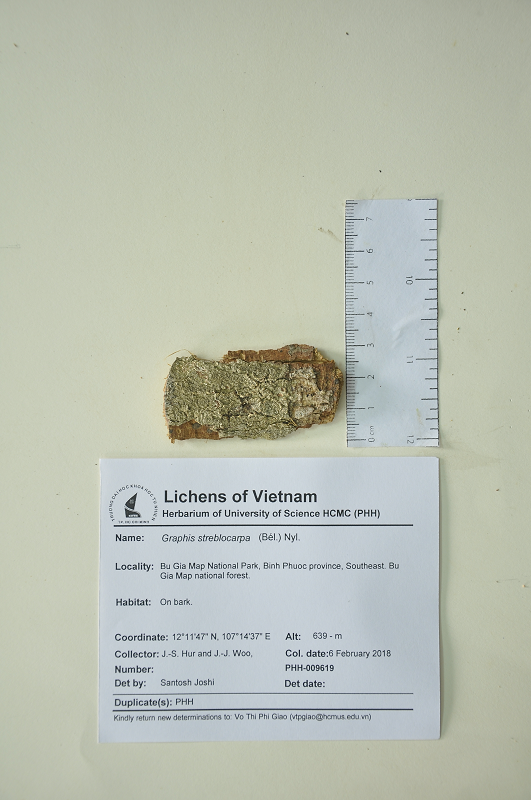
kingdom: Fungi
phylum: Ascomycota
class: Lecanoromycetes
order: Ostropales
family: Graphidaceae
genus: Graphina
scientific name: Graphina streblocarpa
